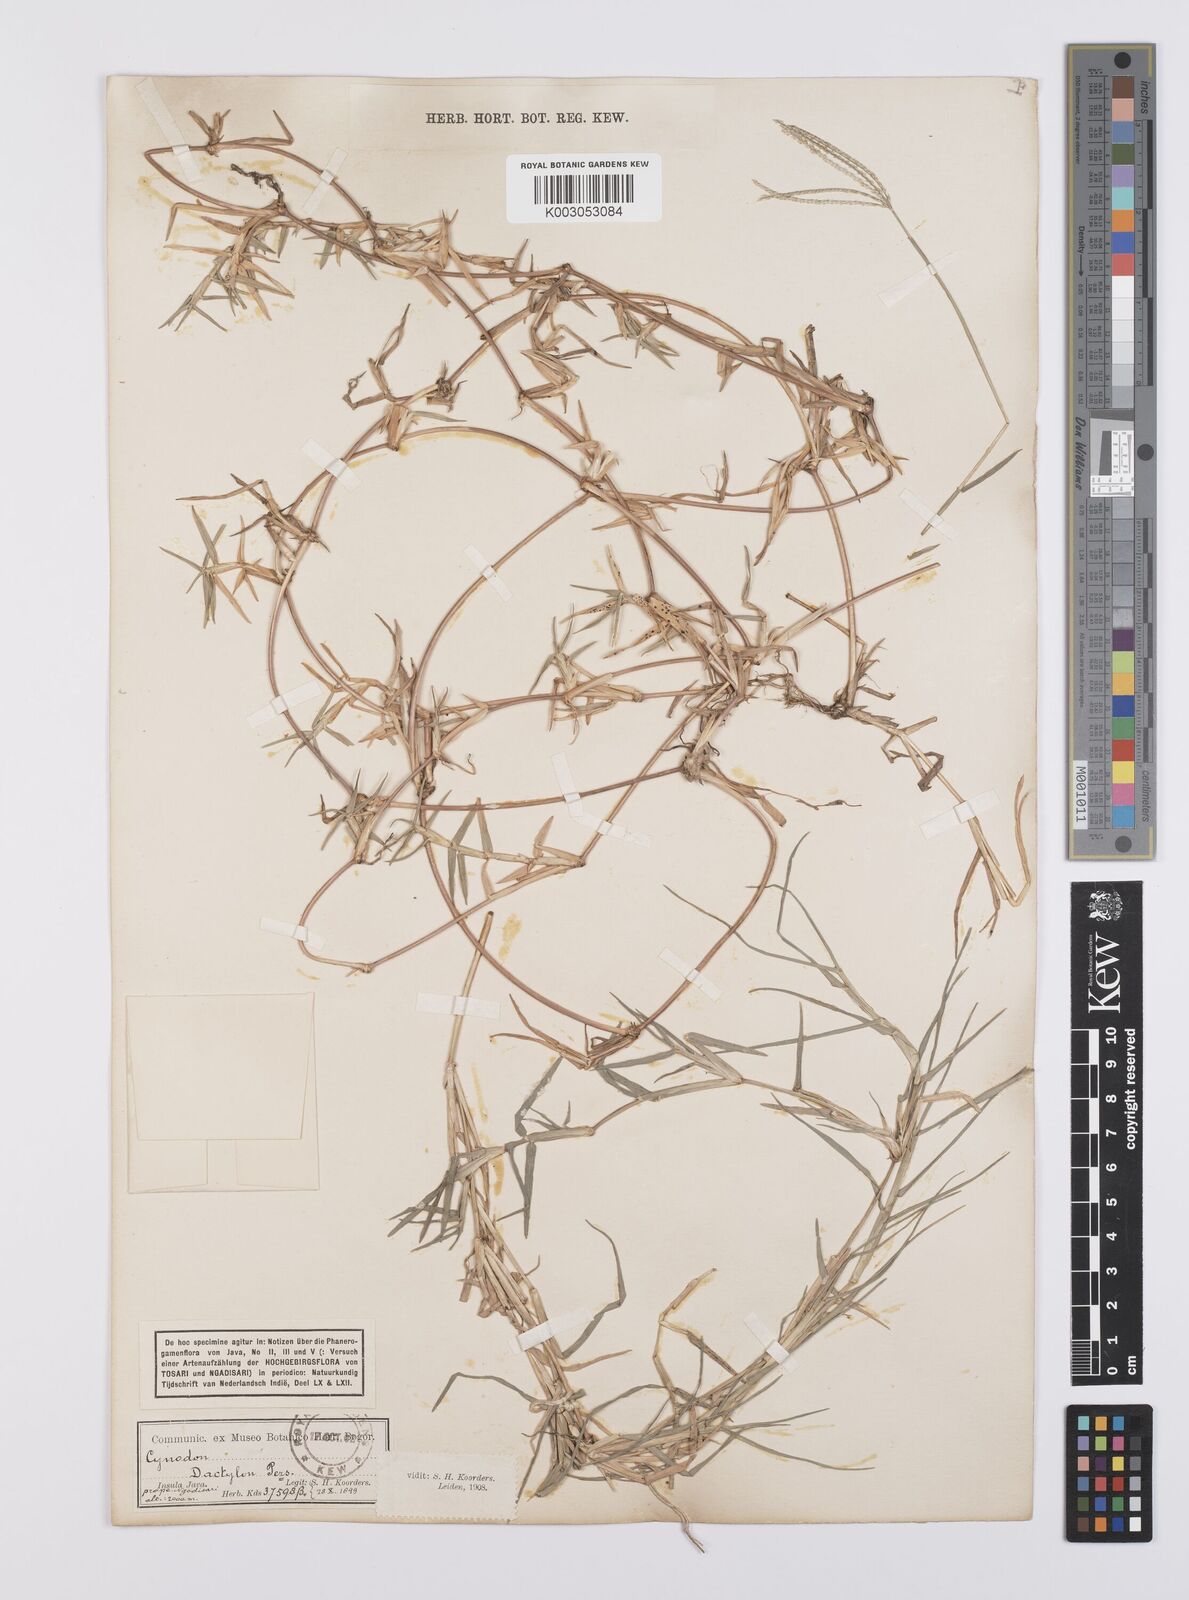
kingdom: Plantae
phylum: Tracheophyta
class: Liliopsida
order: Poales
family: Poaceae
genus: Cynodon
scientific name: Cynodon dactylon
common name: Bermuda grass
